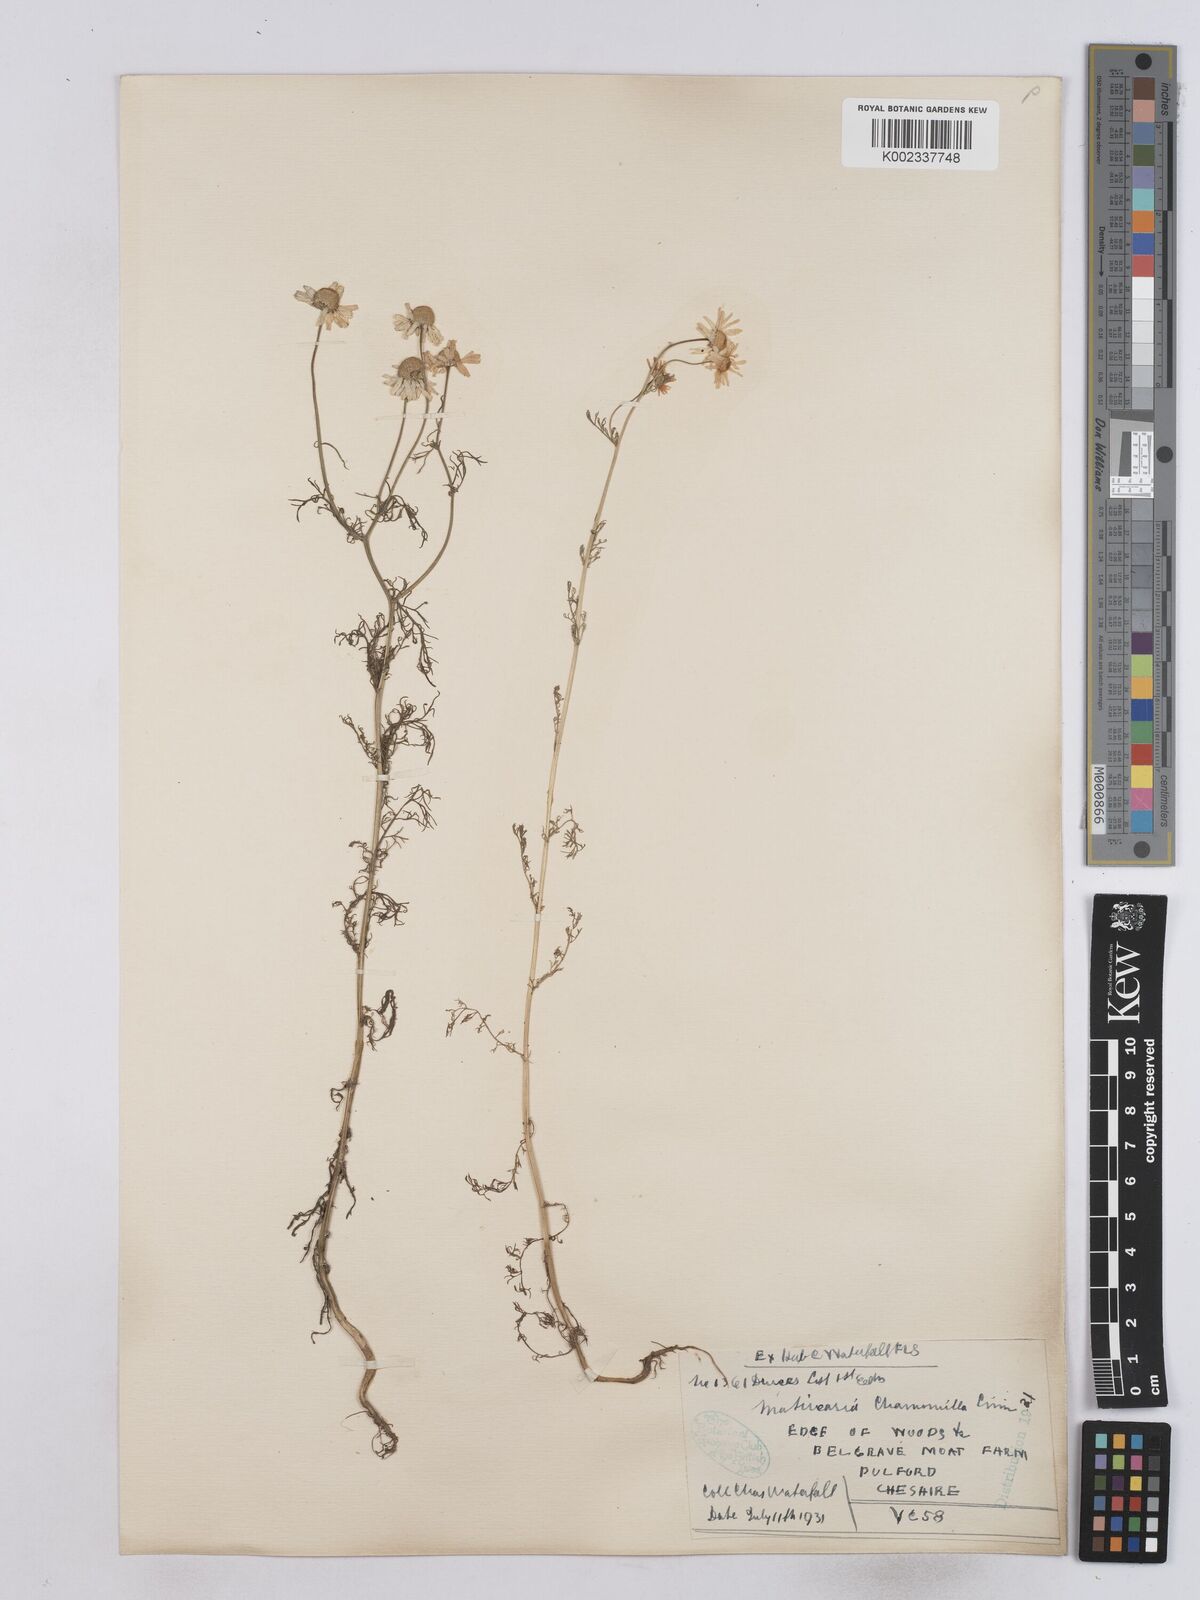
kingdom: Plantae
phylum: Tracheophyta
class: Magnoliopsida
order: Asterales
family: Asteraceae
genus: Matricaria
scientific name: Matricaria chamomilla
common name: Scented mayweed
